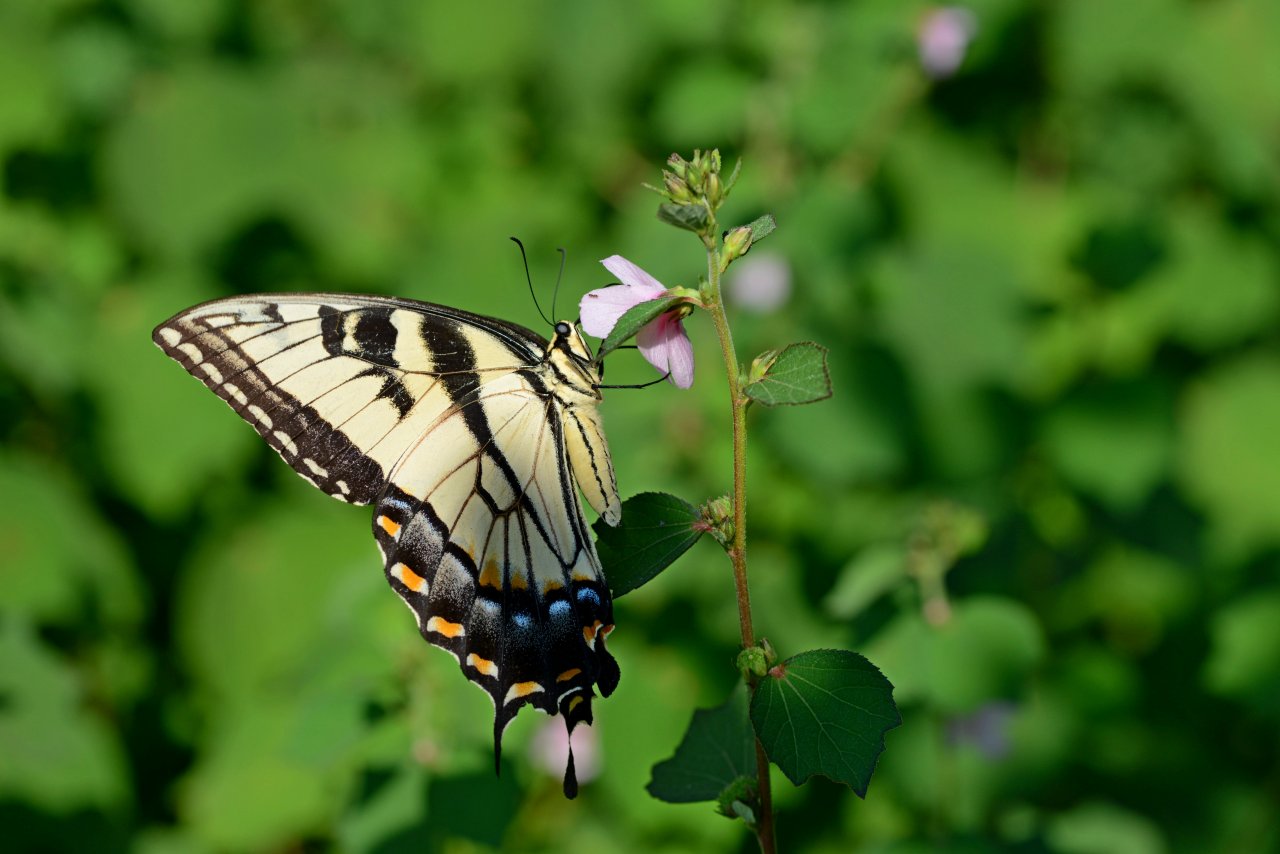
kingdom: Animalia
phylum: Arthropoda
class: Insecta
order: Lepidoptera
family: Papilionidae
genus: Pterourus
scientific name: Pterourus glaucus
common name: Eastern Tiger Swallowtail
